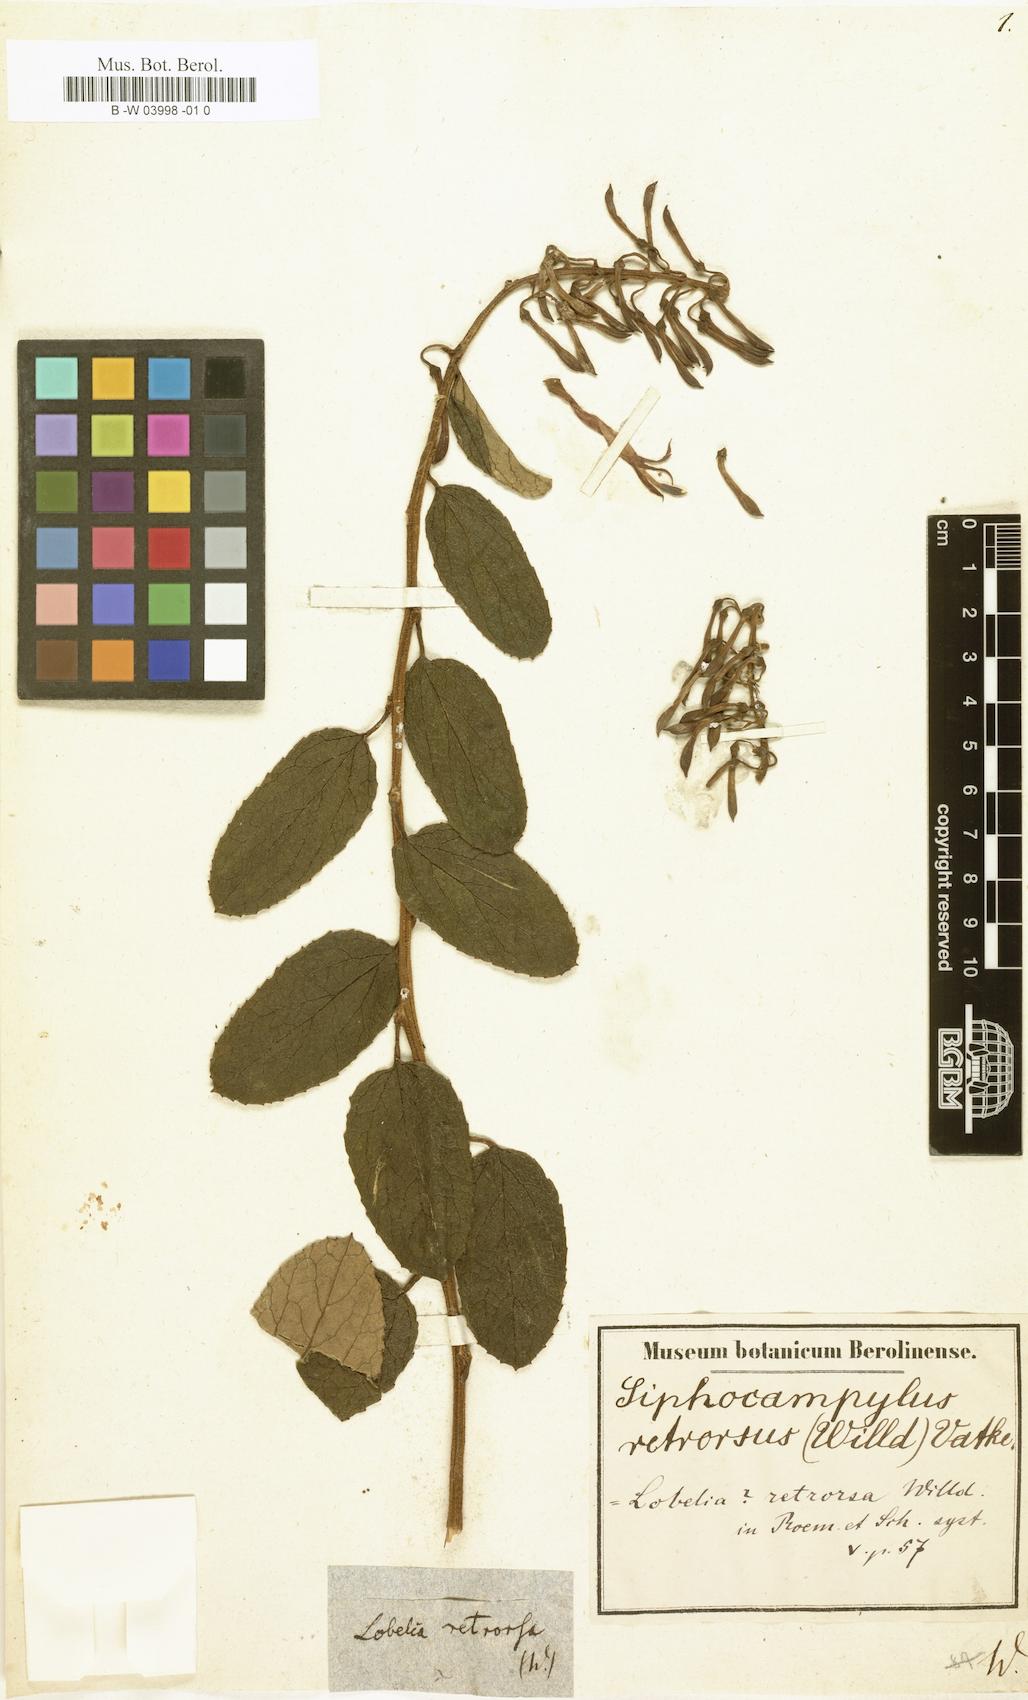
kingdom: Plantae
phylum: Tracheophyta
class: Magnoliopsida
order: Asterales
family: Campanulaceae
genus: Siphocampylus
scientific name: Siphocampylus retrorsus
